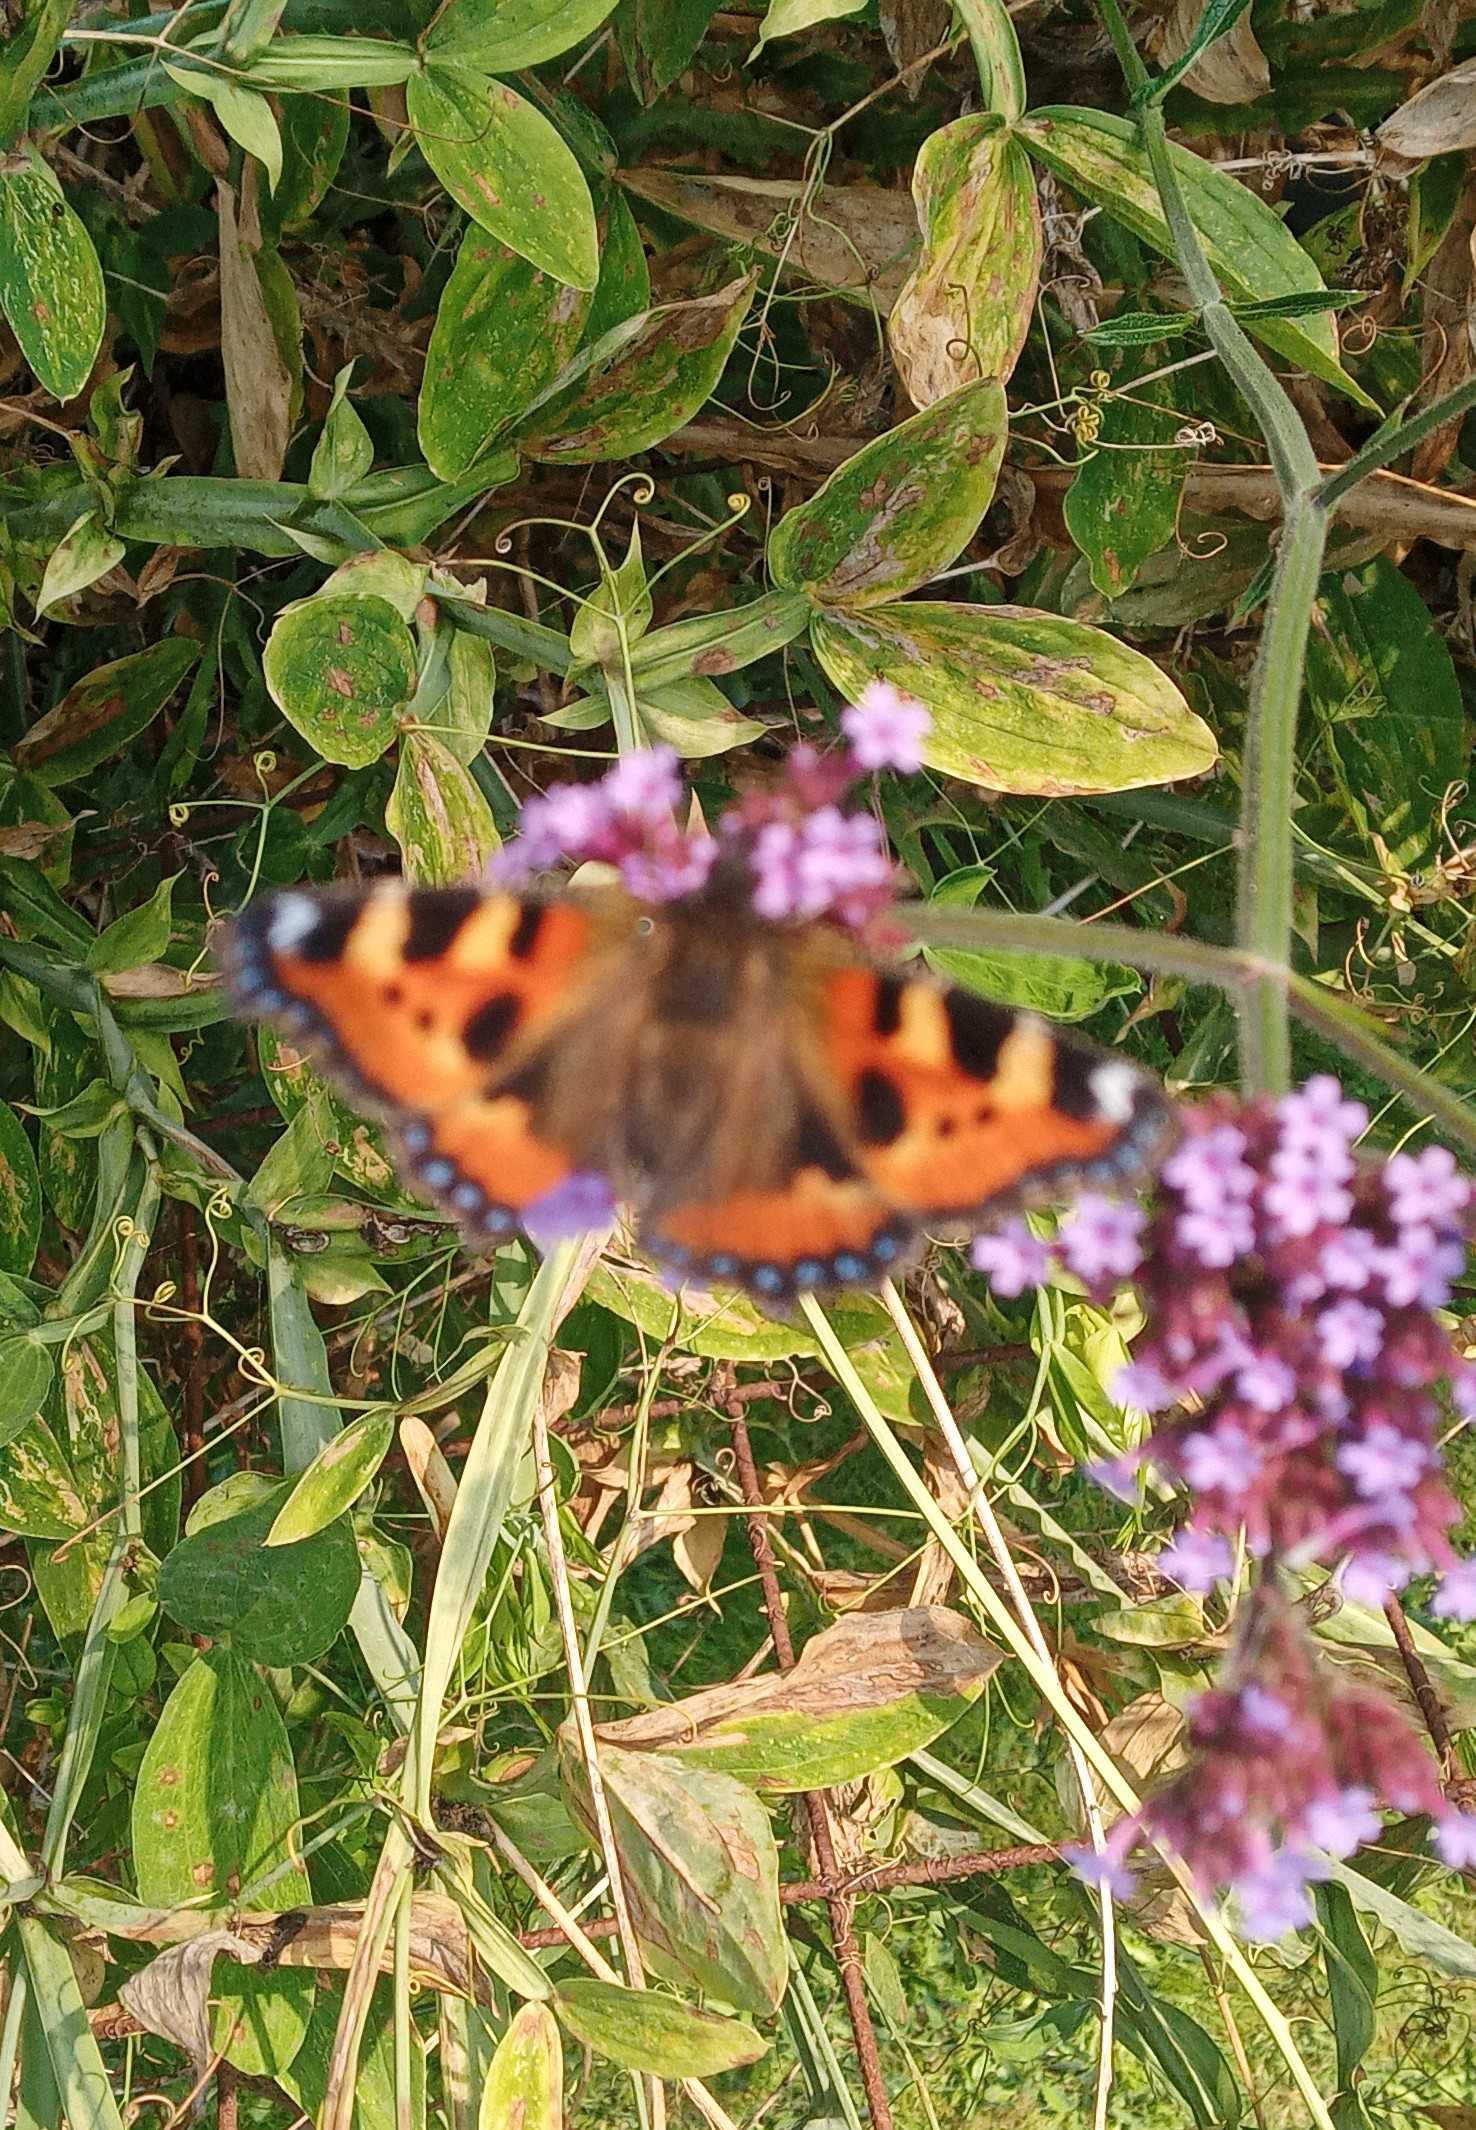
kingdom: Animalia
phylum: Arthropoda
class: Insecta
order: Lepidoptera
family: Nymphalidae
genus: Aglais
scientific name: Aglais urticae
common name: Nældens takvinge
